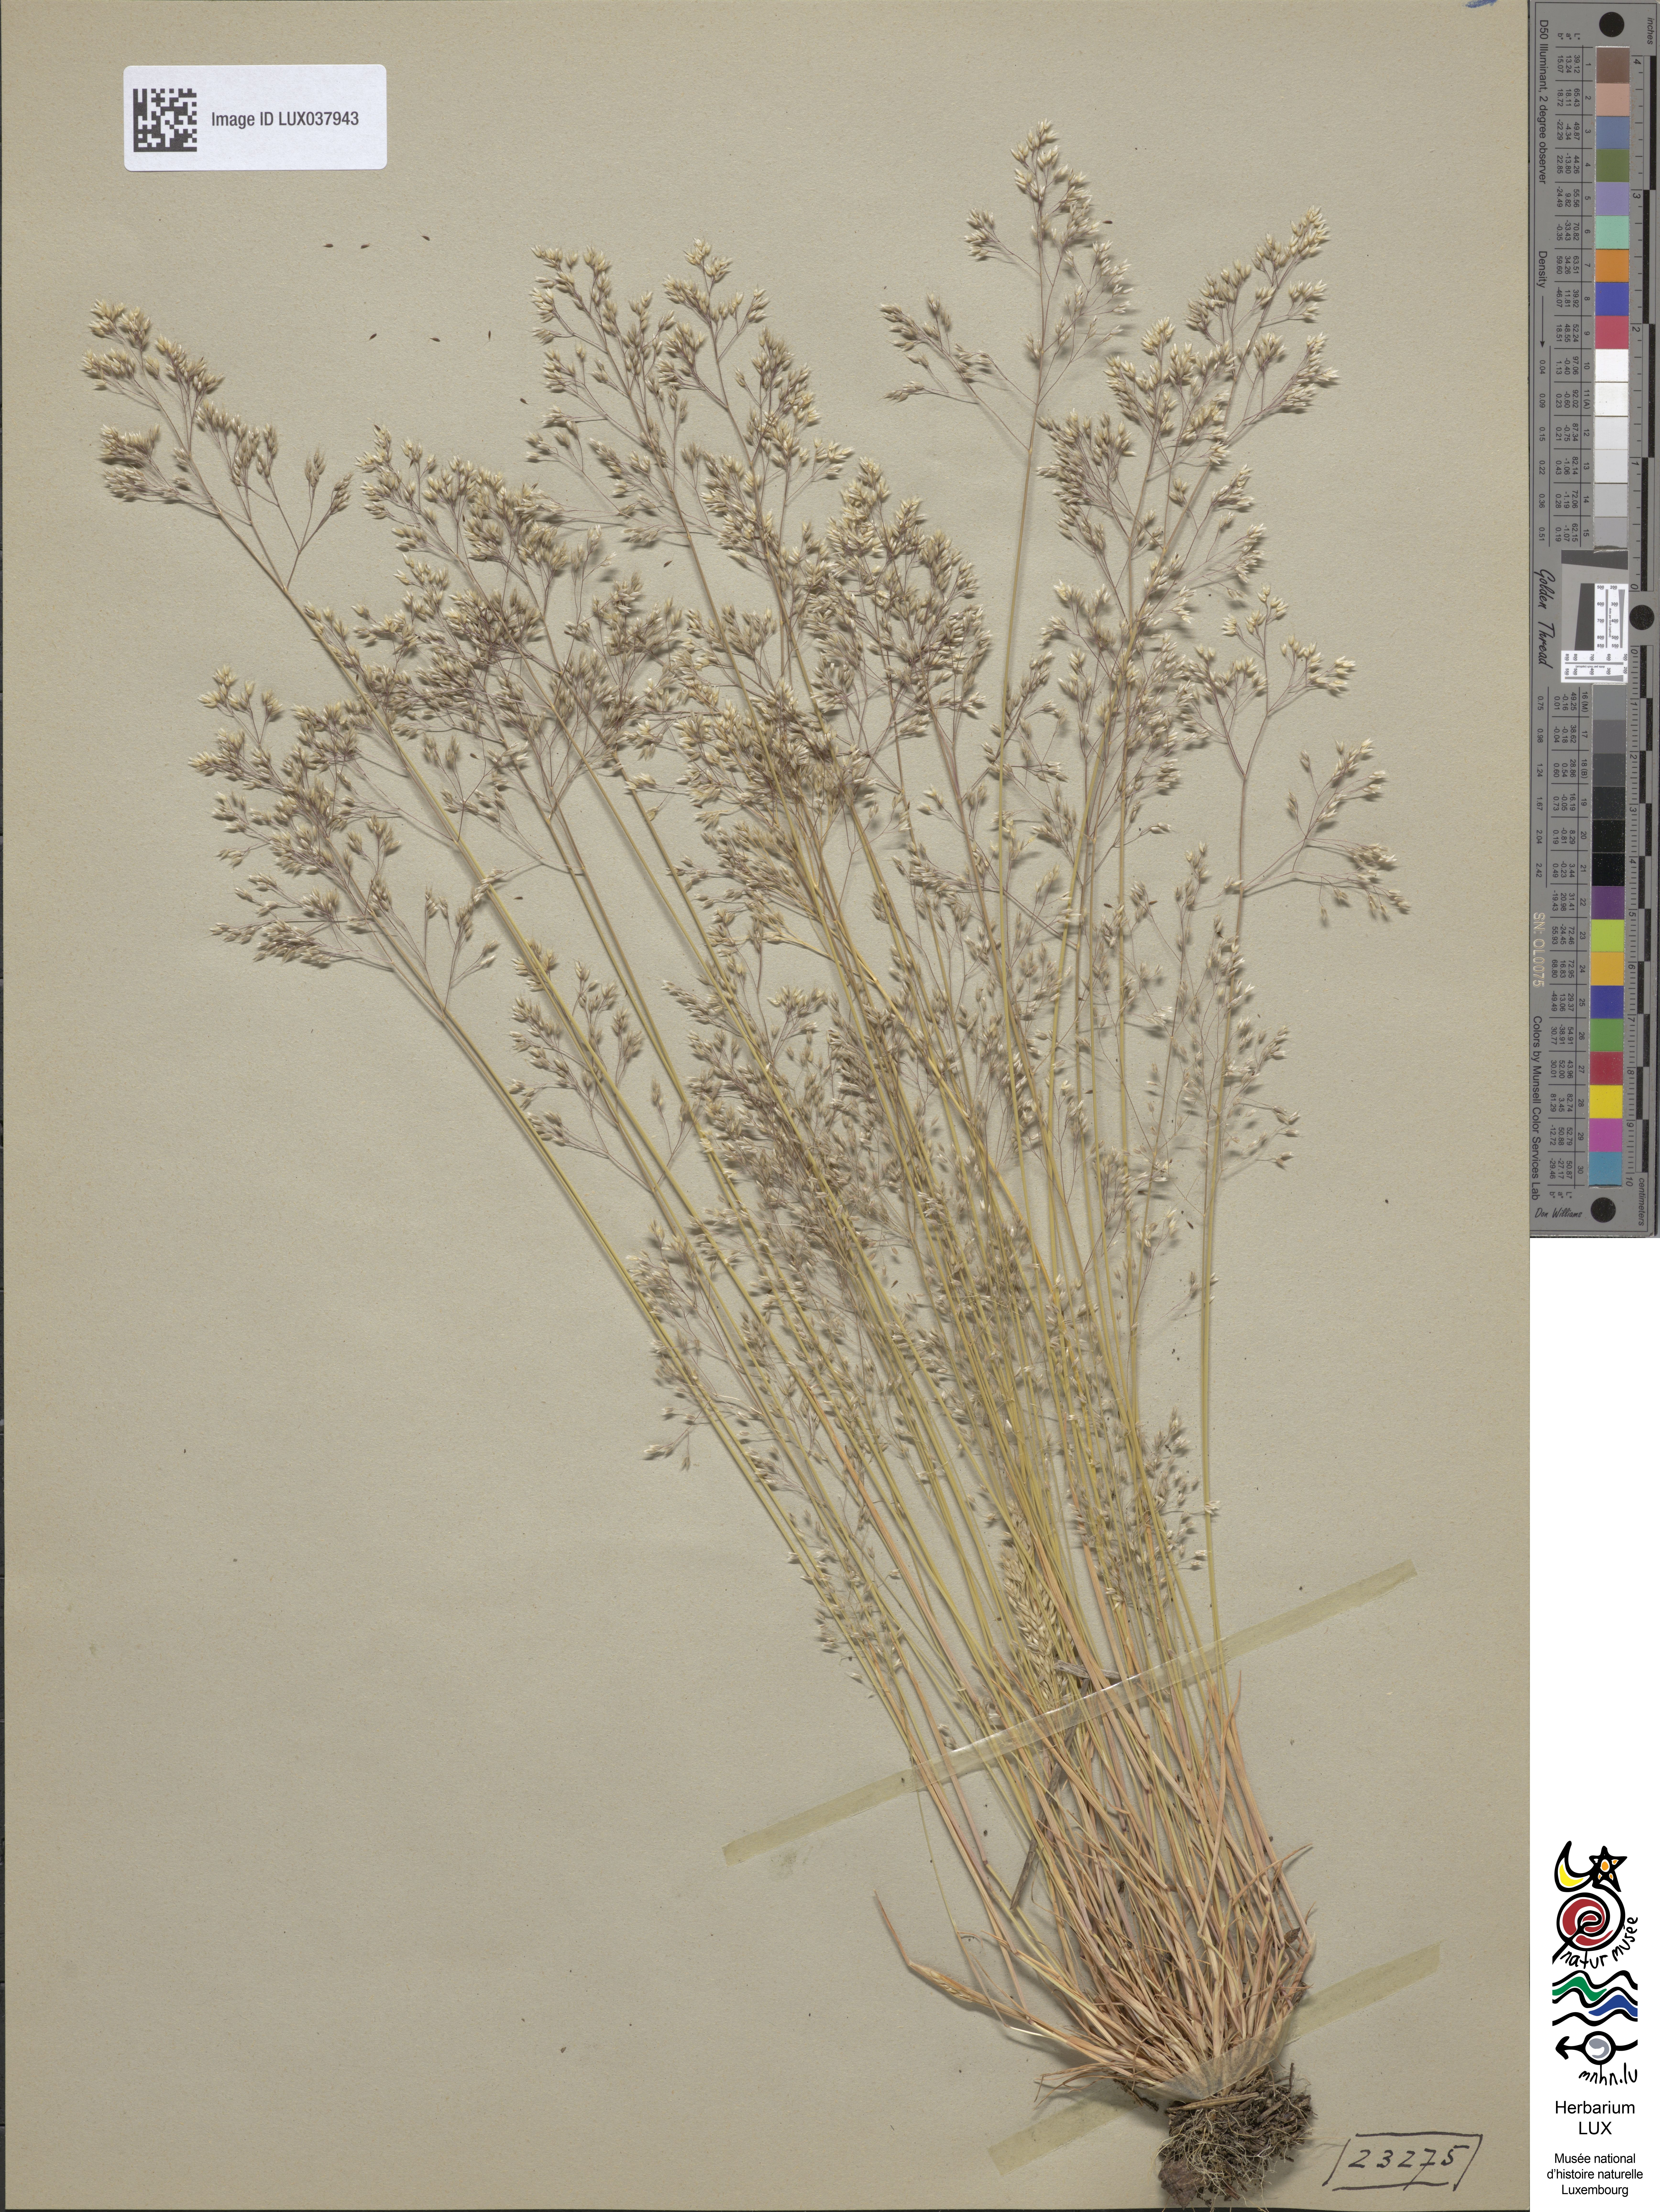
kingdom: Plantae
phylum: Tracheophyta
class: Liliopsida
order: Poales
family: Poaceae
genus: Aira
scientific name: Aira caryophyllea
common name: Silver hairgrass
